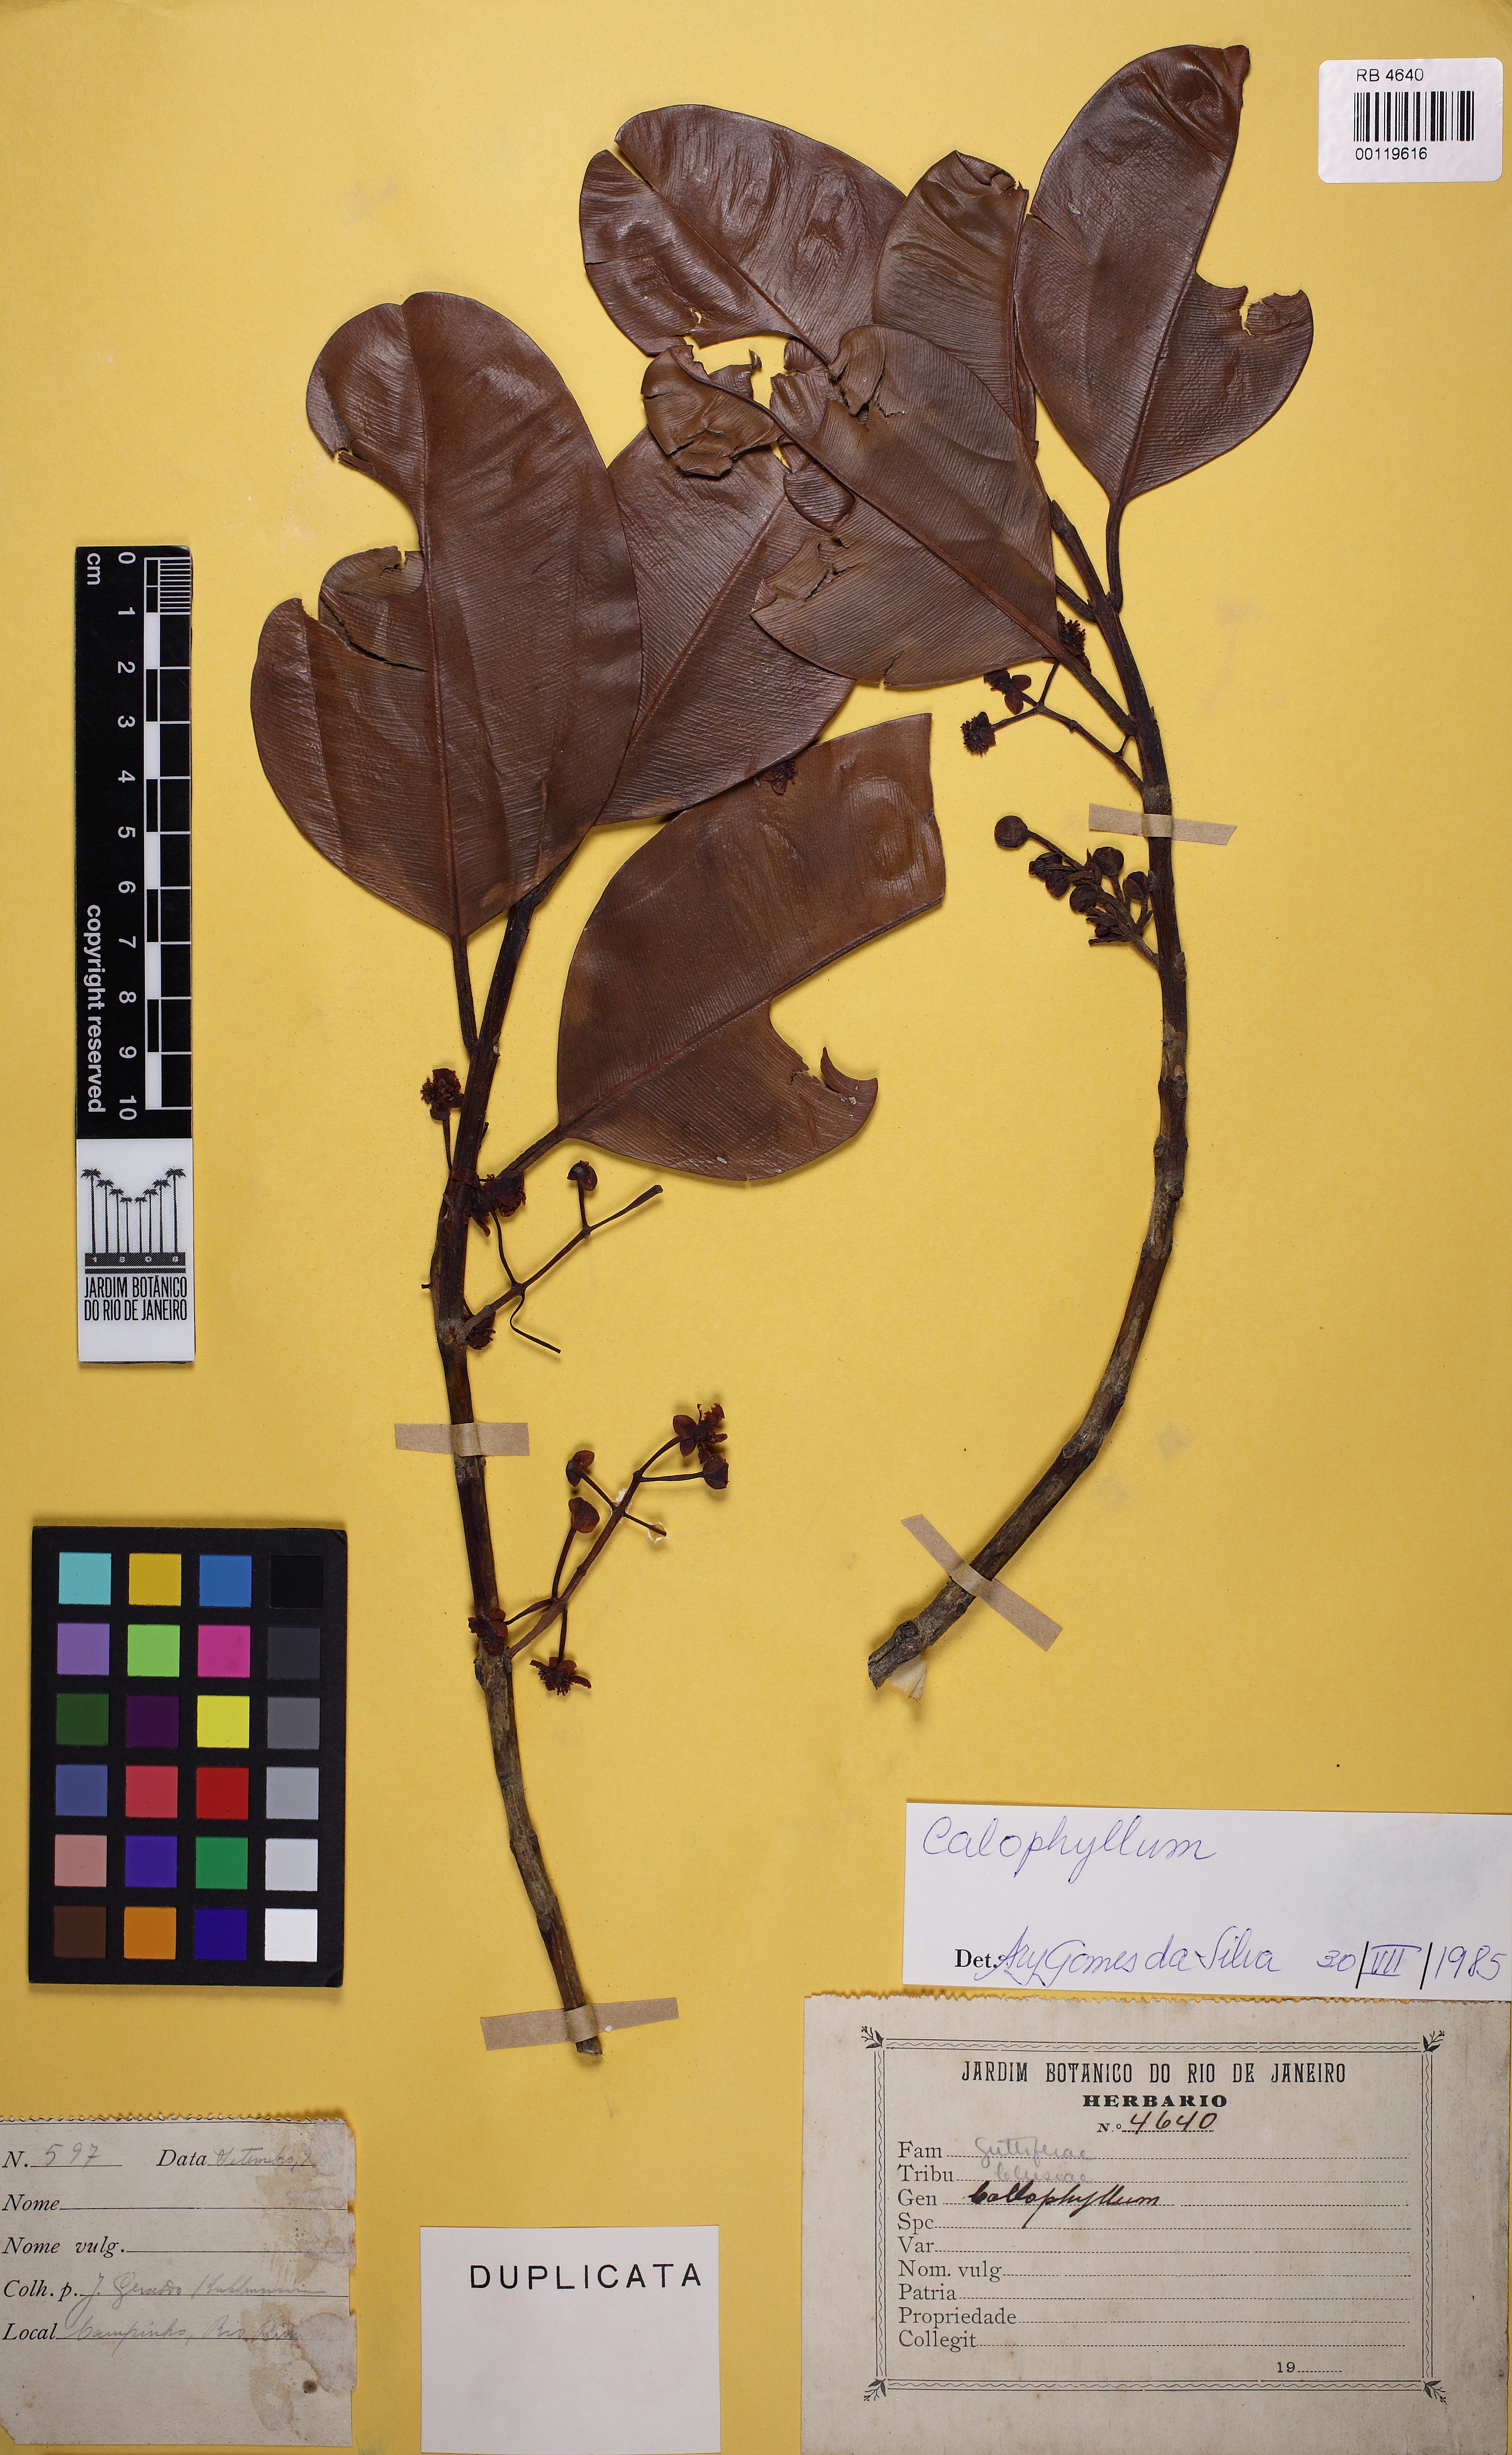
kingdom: Plantae
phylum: Tracheophyta
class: Magnoliopsida
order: Malpighiales
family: Hypericaceae
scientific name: Hypericaceae
